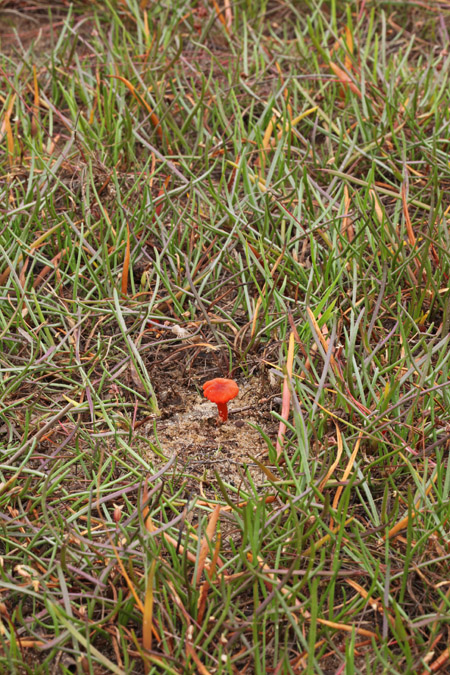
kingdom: Fungi
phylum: Basidiomycota
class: Agaricomycetes
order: Agaricales
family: Hygrophoraceae
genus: Hygrocybe
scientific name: Hygrocybe coccineocrenata
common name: tørvemos-vokshat
